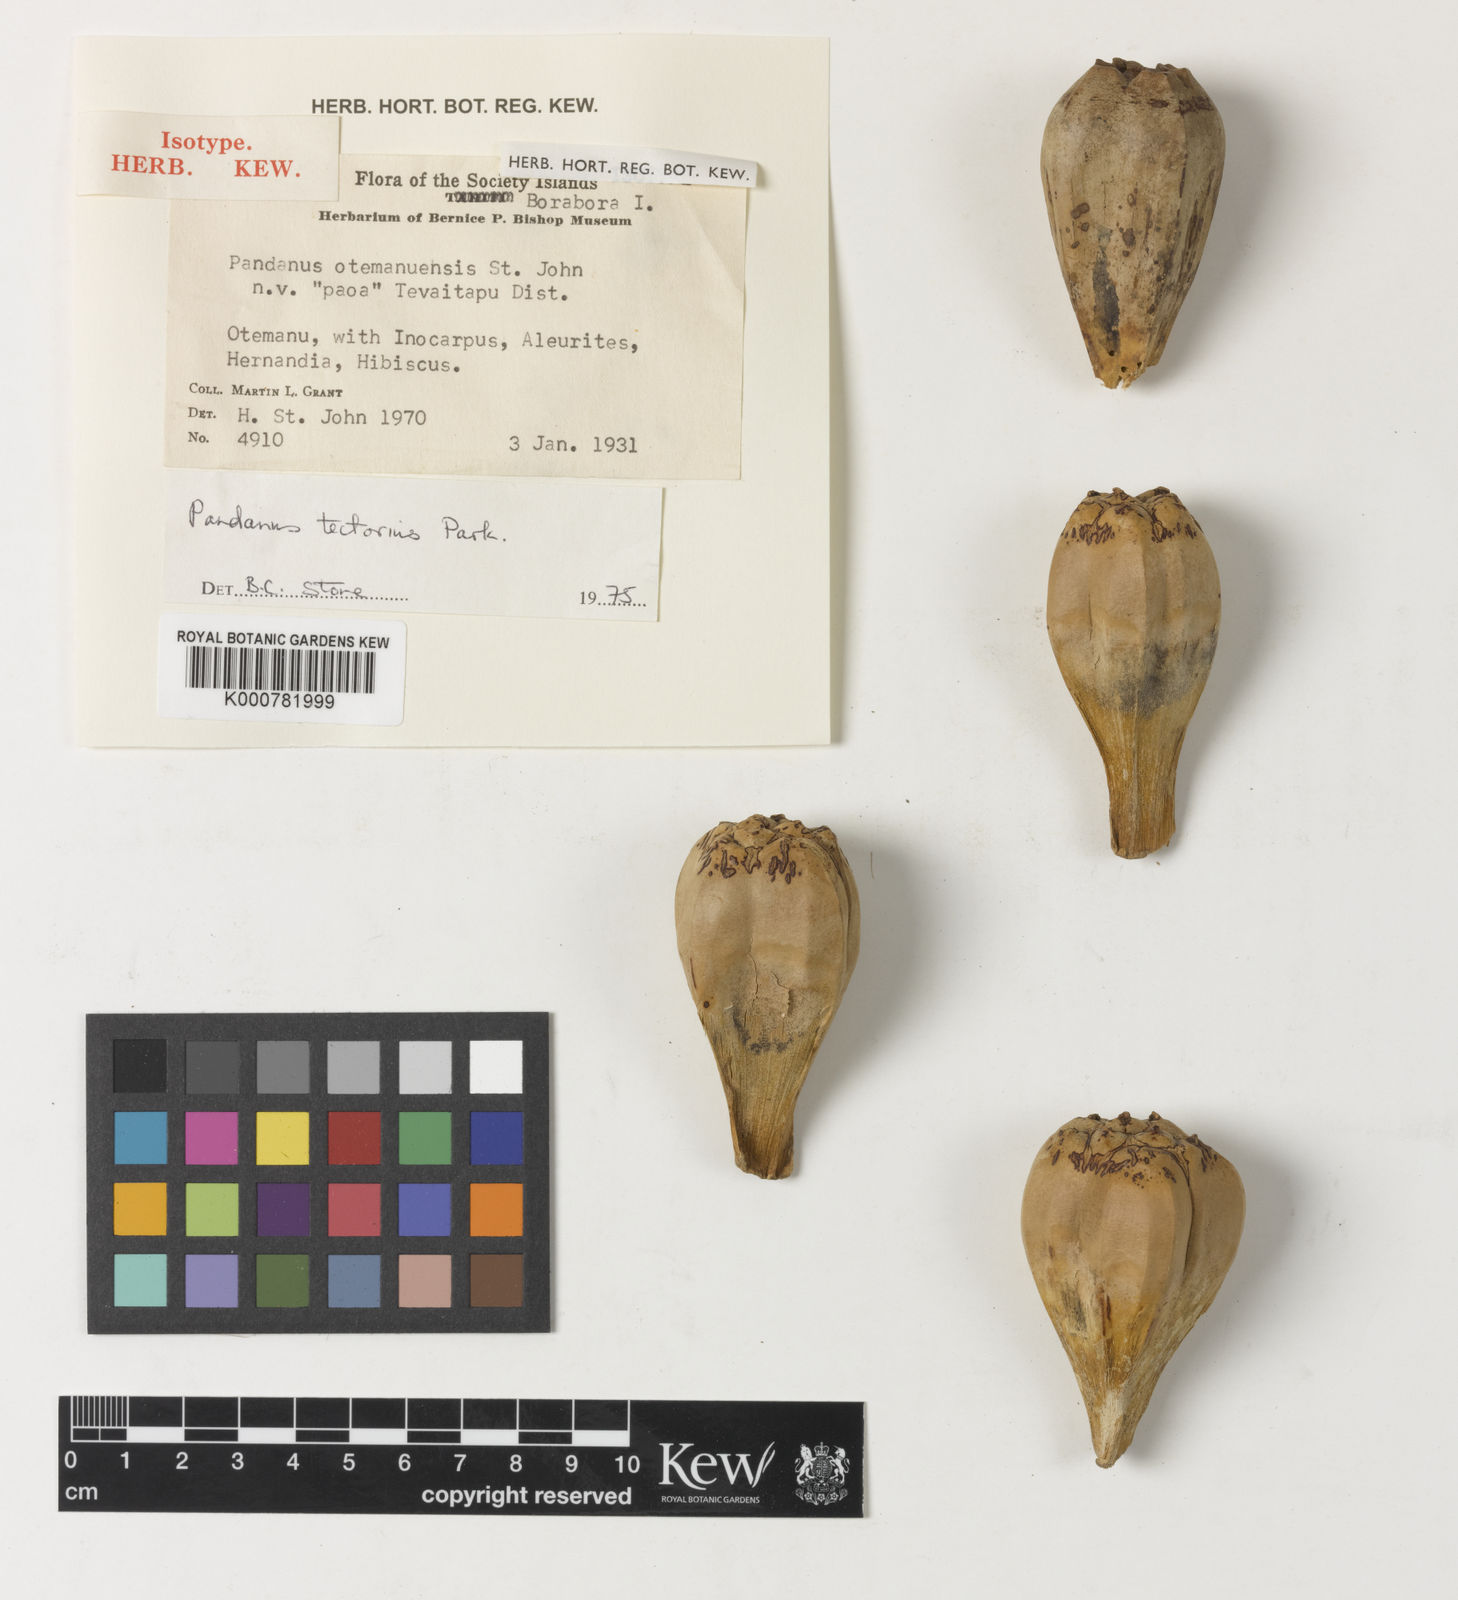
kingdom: Plantae
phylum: Tracheophyta
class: Liliopsida
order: Pandanales
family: Pandanaceae
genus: Pandanus
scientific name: Pandanus
